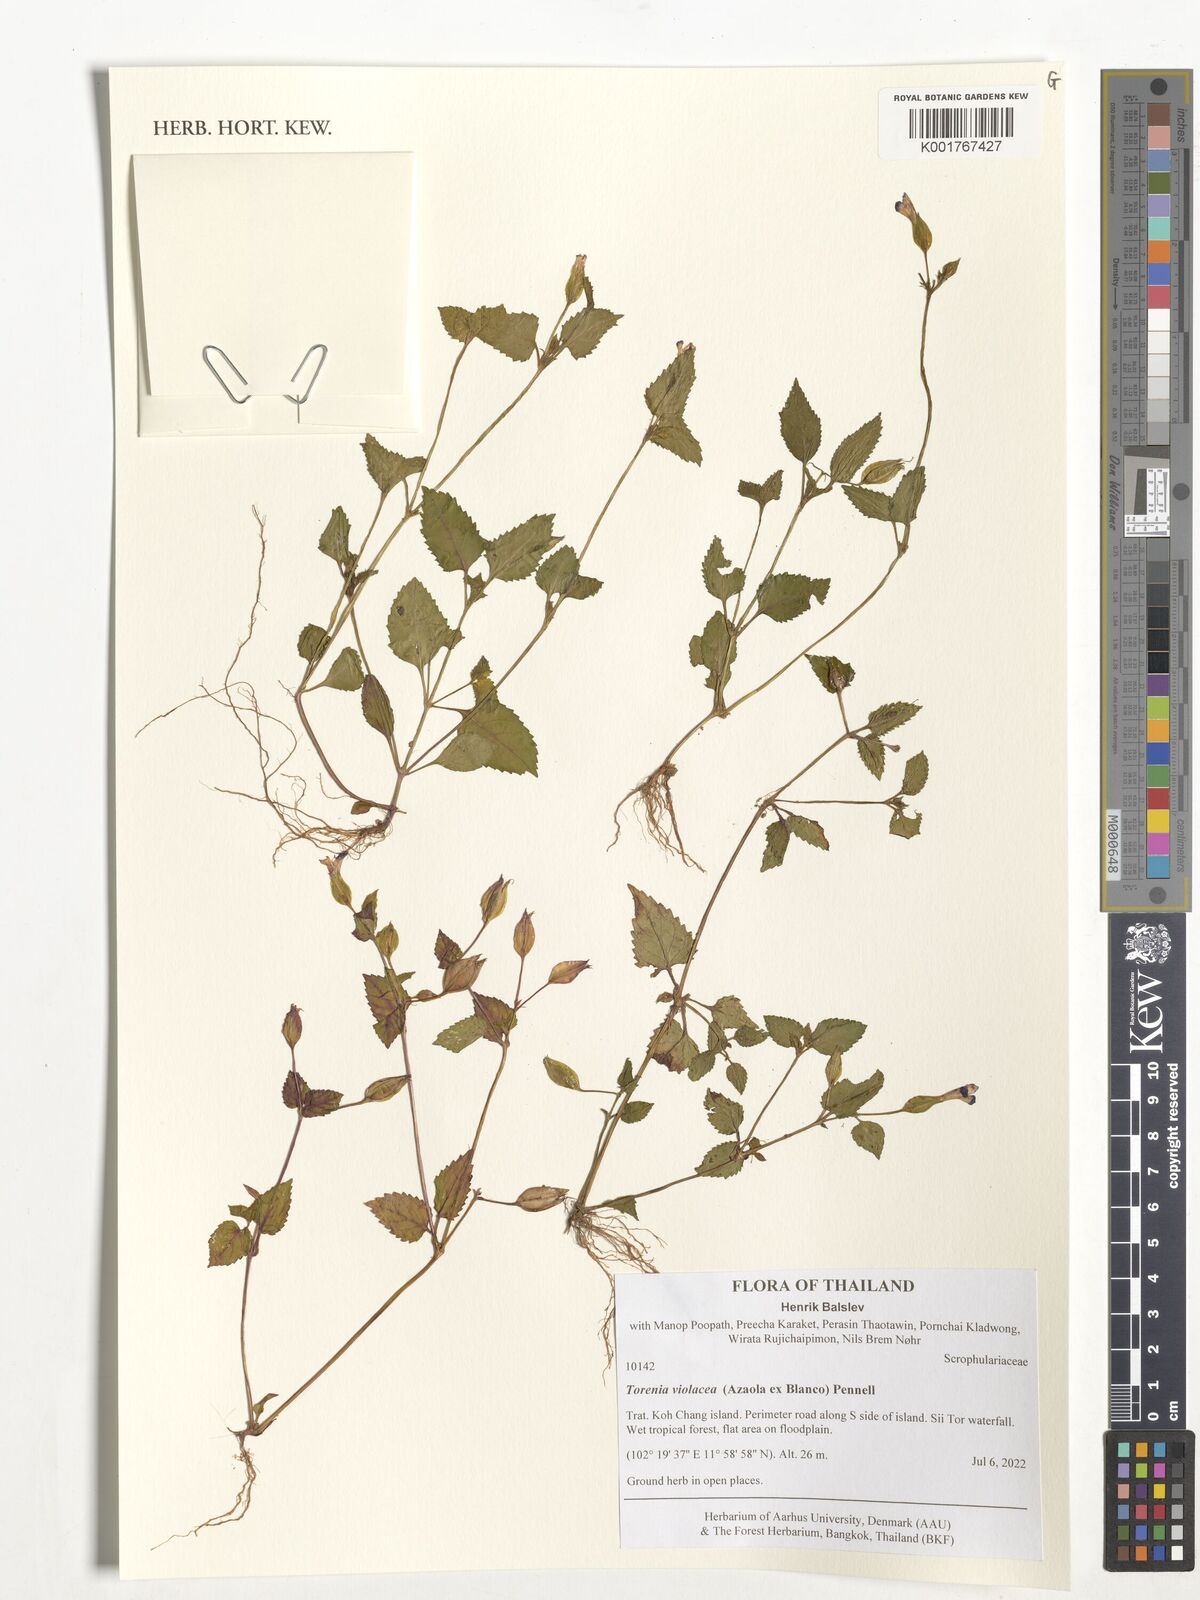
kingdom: Plantae
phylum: Tracheophyta
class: Magnoliopsida
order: Lamiales
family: Linderniaceae
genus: Torenia
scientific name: Torenia violacea
